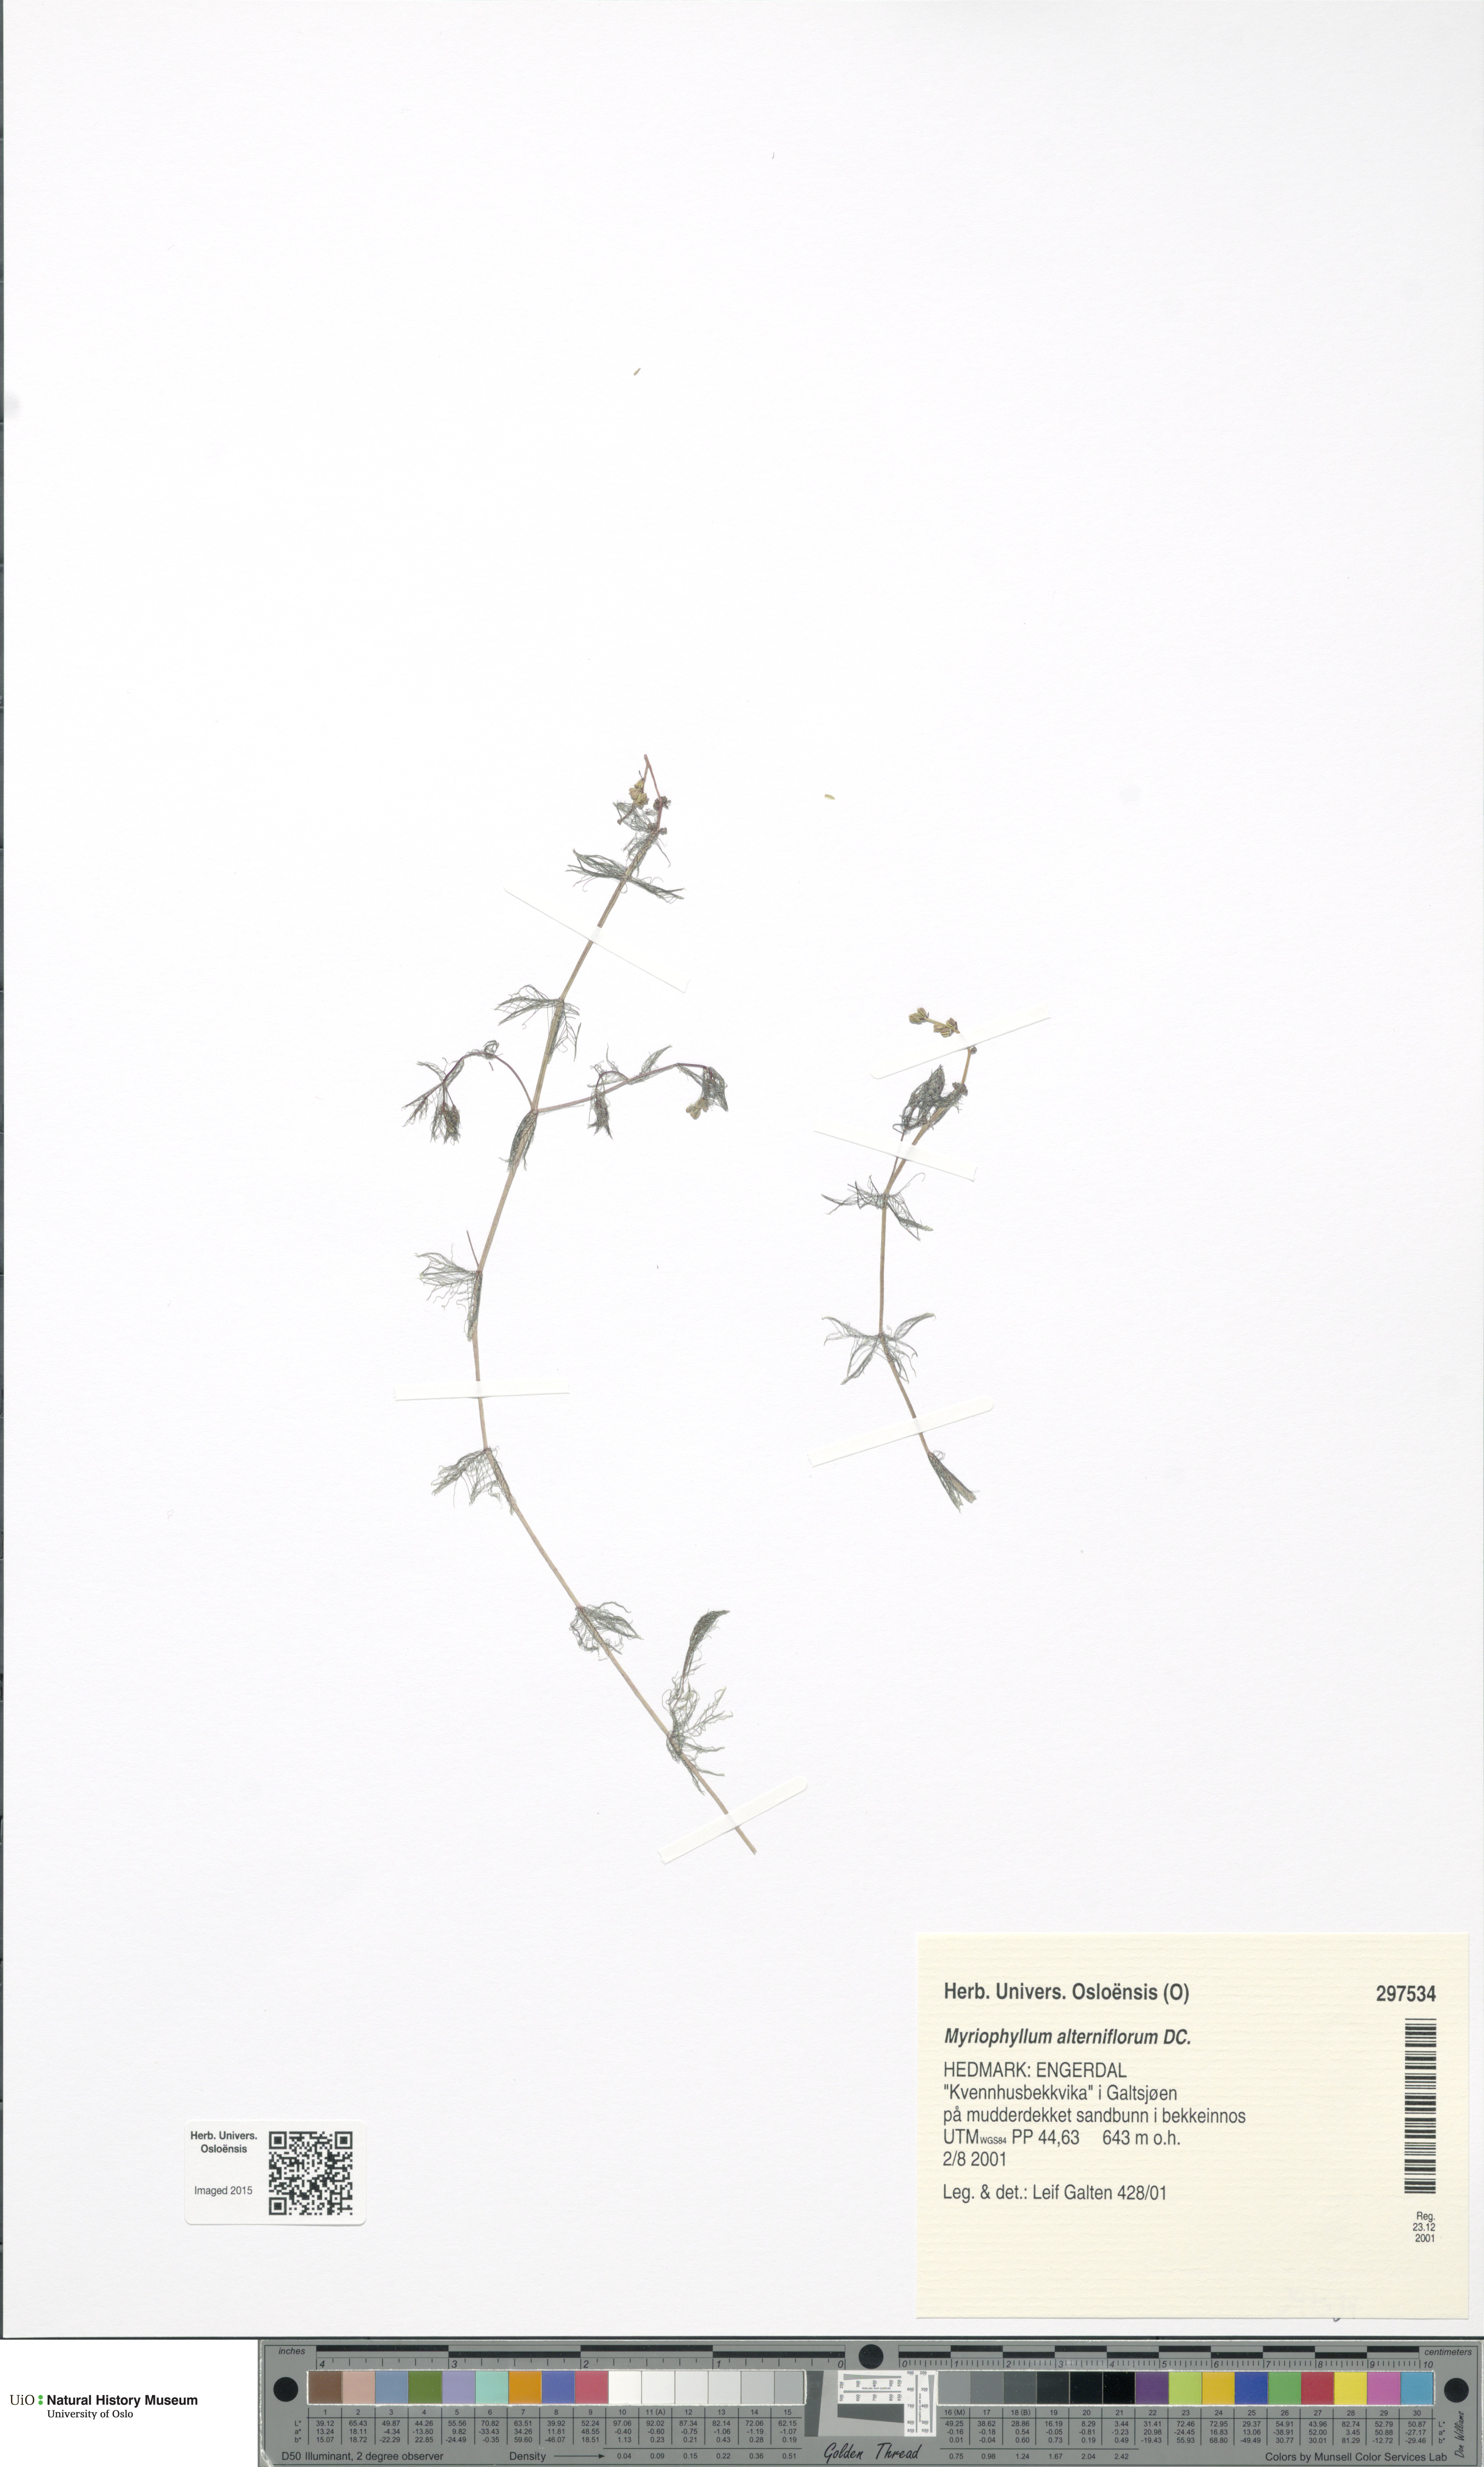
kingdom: Plantae
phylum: Tracheophyta
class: Magnoliopsida
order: Saxifragales
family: Haloragaceae
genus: Myriophyllum
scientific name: Myriophyllum alterniflorum
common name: Alternate water-milfoil
